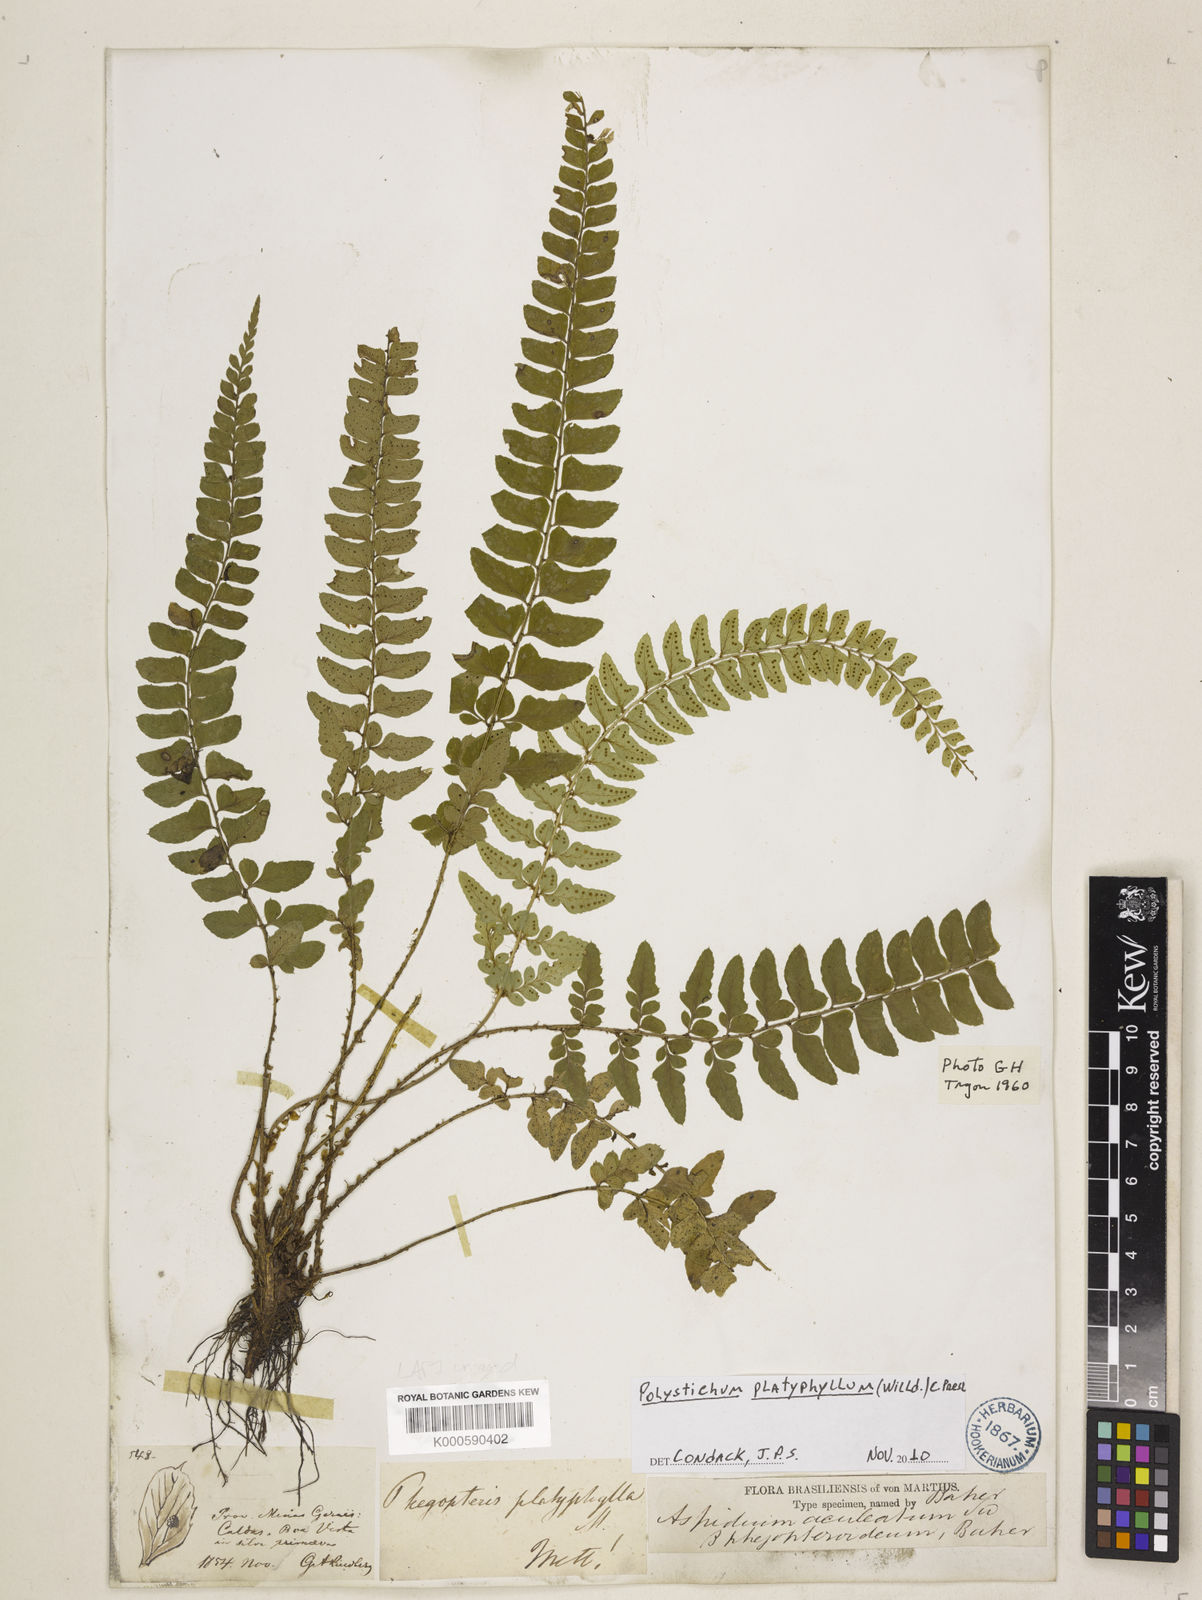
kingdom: Plantae
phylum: Tracheophyta
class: Polypodiopsida
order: Polypodiales
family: Dryopteridaceae
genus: Polystichum
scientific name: Polystichum aculeatum
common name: Hard shield-fern
